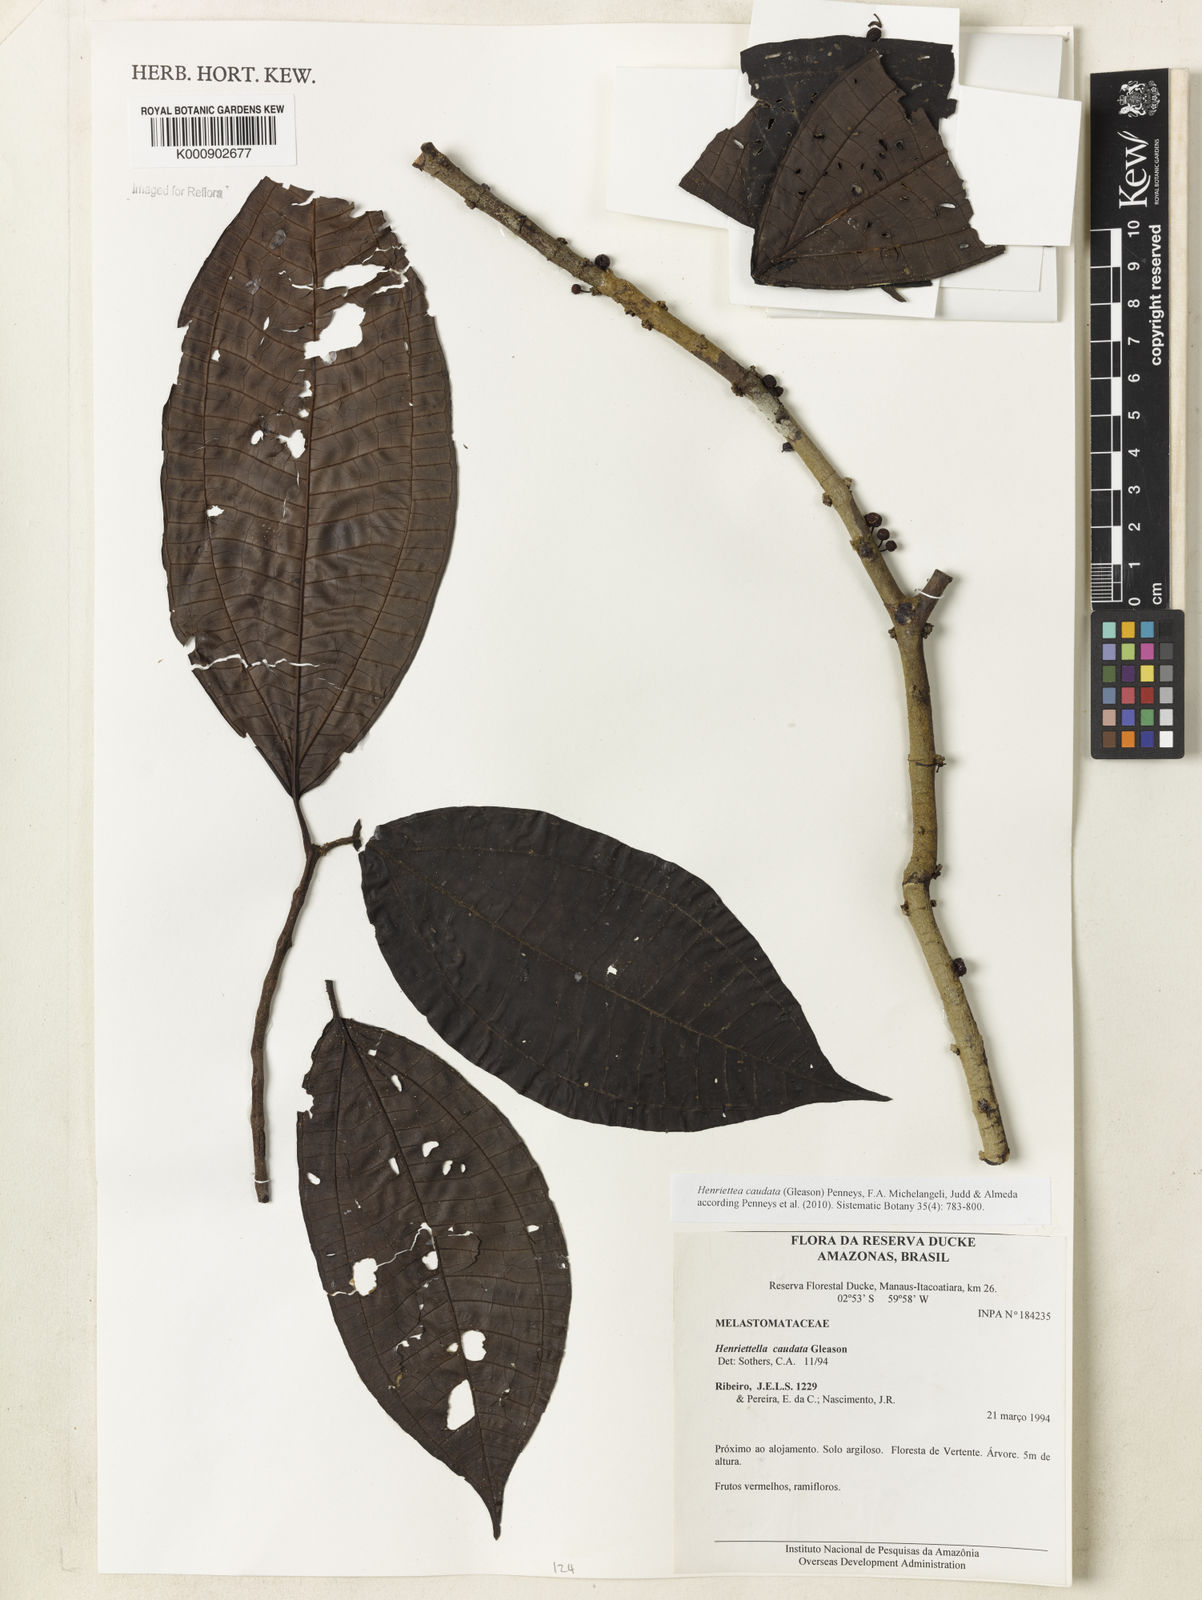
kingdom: Plantae
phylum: Tracheophyta
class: Magnoliopsida
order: Myrtales
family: Melastomataceae
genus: Henriettea
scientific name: Henriettea caudata
